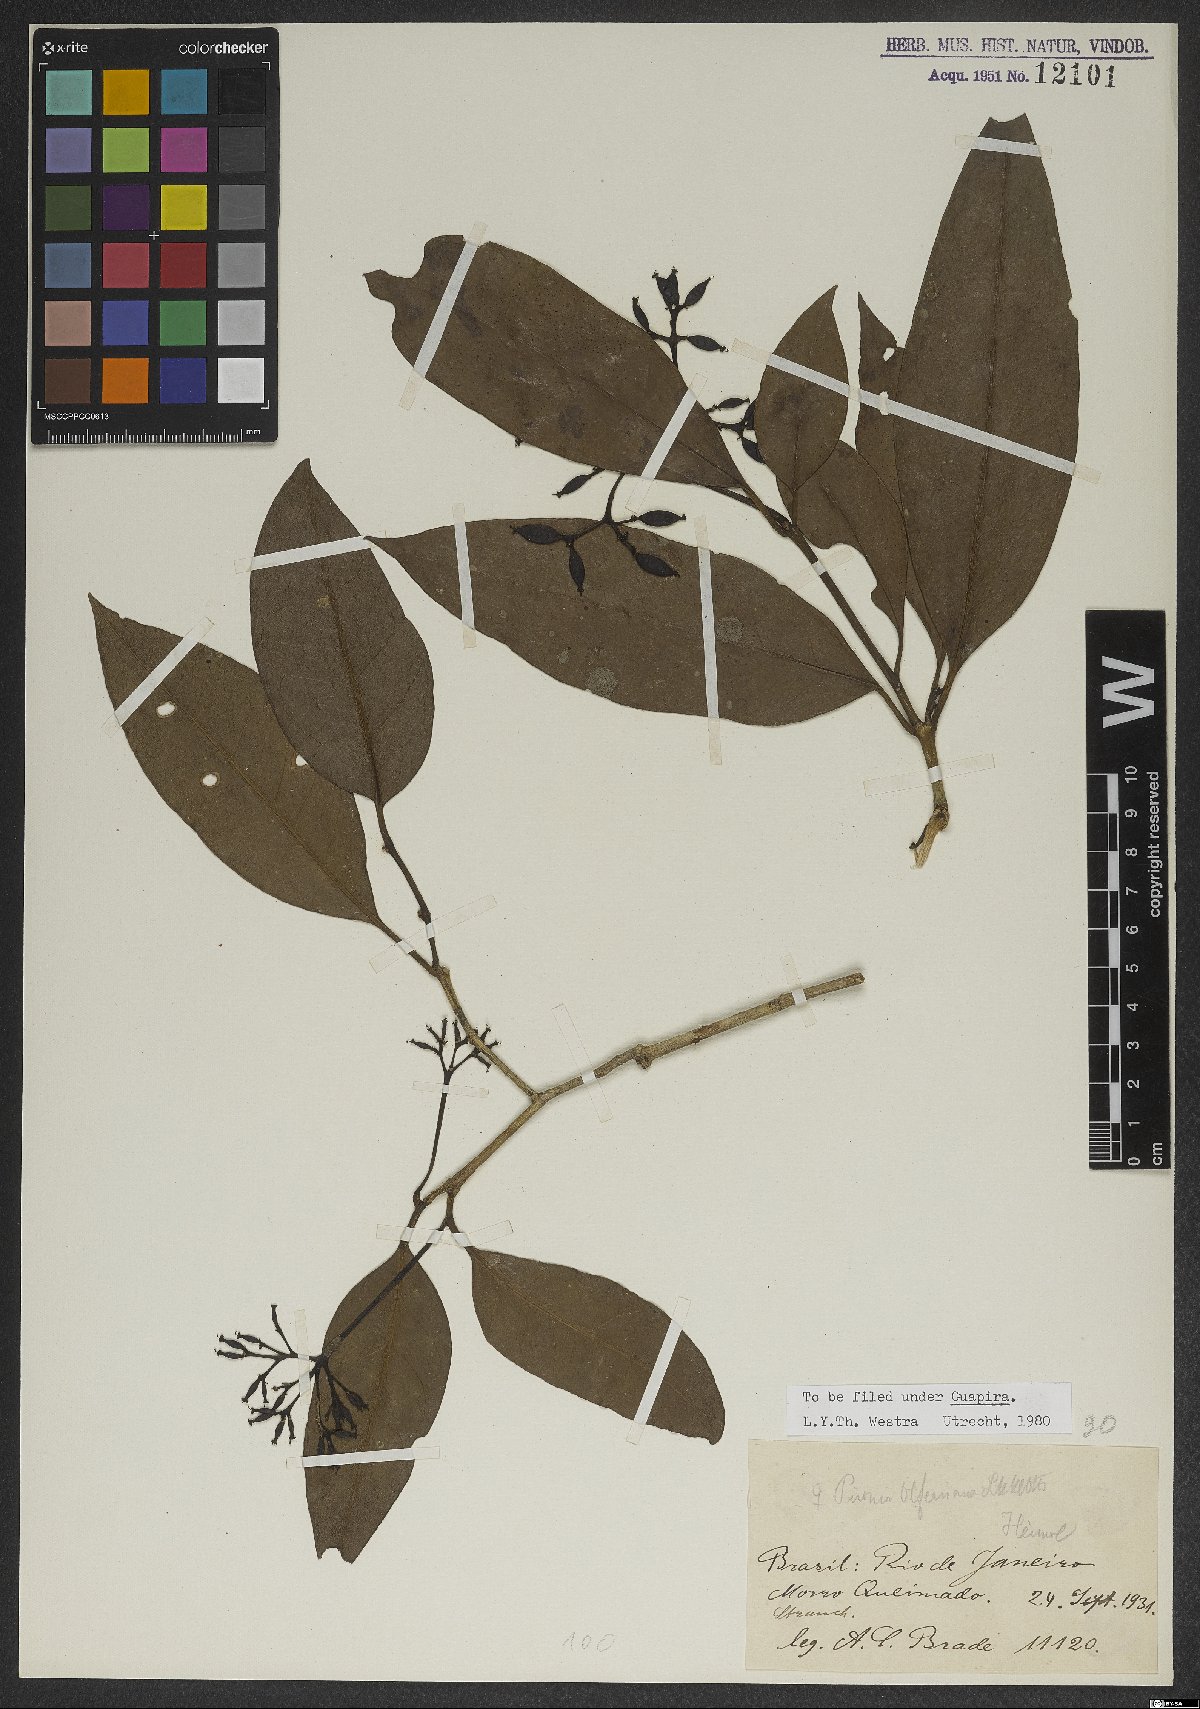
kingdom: Plantae
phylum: Tracheophyta
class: Magnoliopsida
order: Caryophyllales
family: Nyctaginaceae
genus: Guapira
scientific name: Guapira opposita
